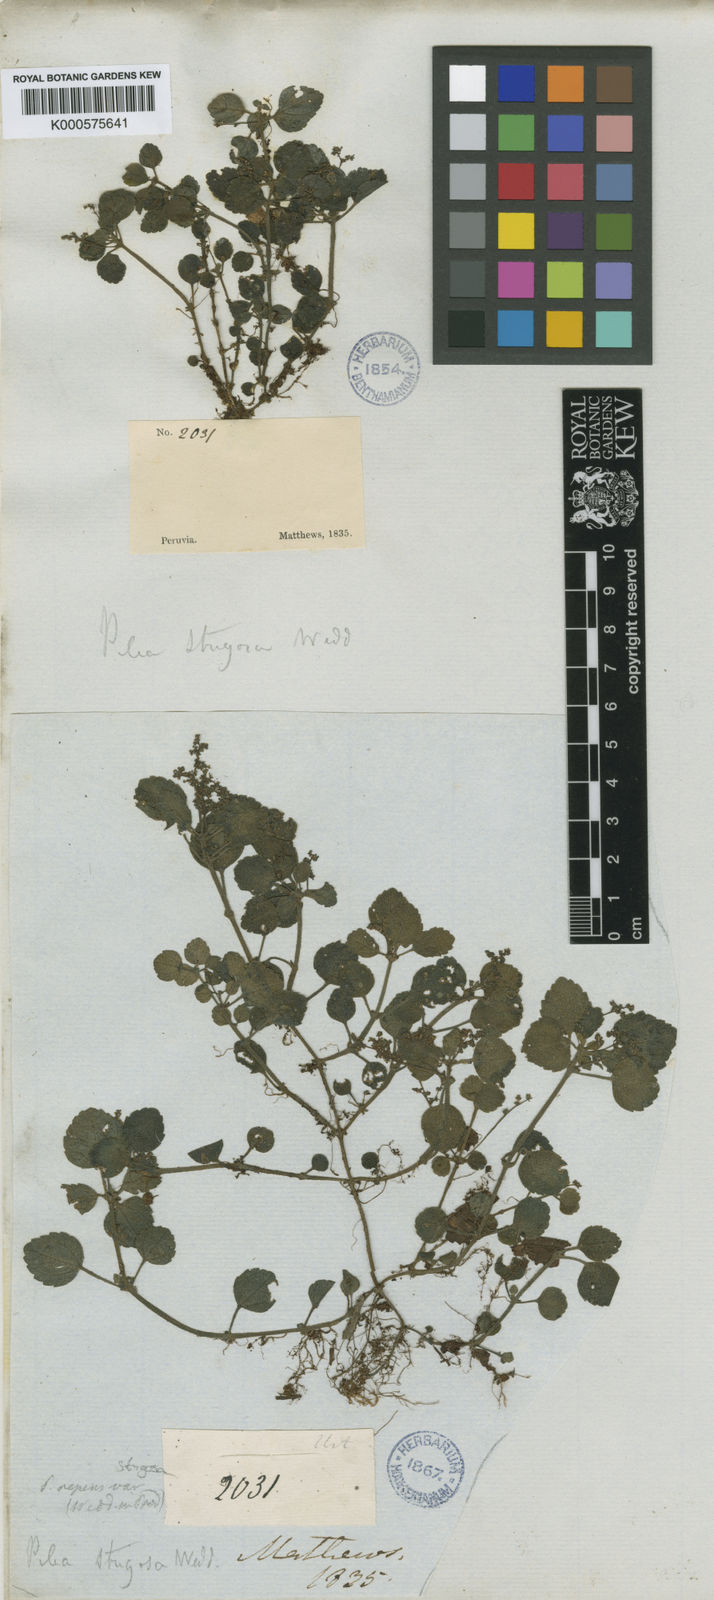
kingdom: Plantae
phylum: Tracheophyta
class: Magnoliopsida
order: Rosales
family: Urticaceae
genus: Pilea
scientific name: Pilea inaequalis
